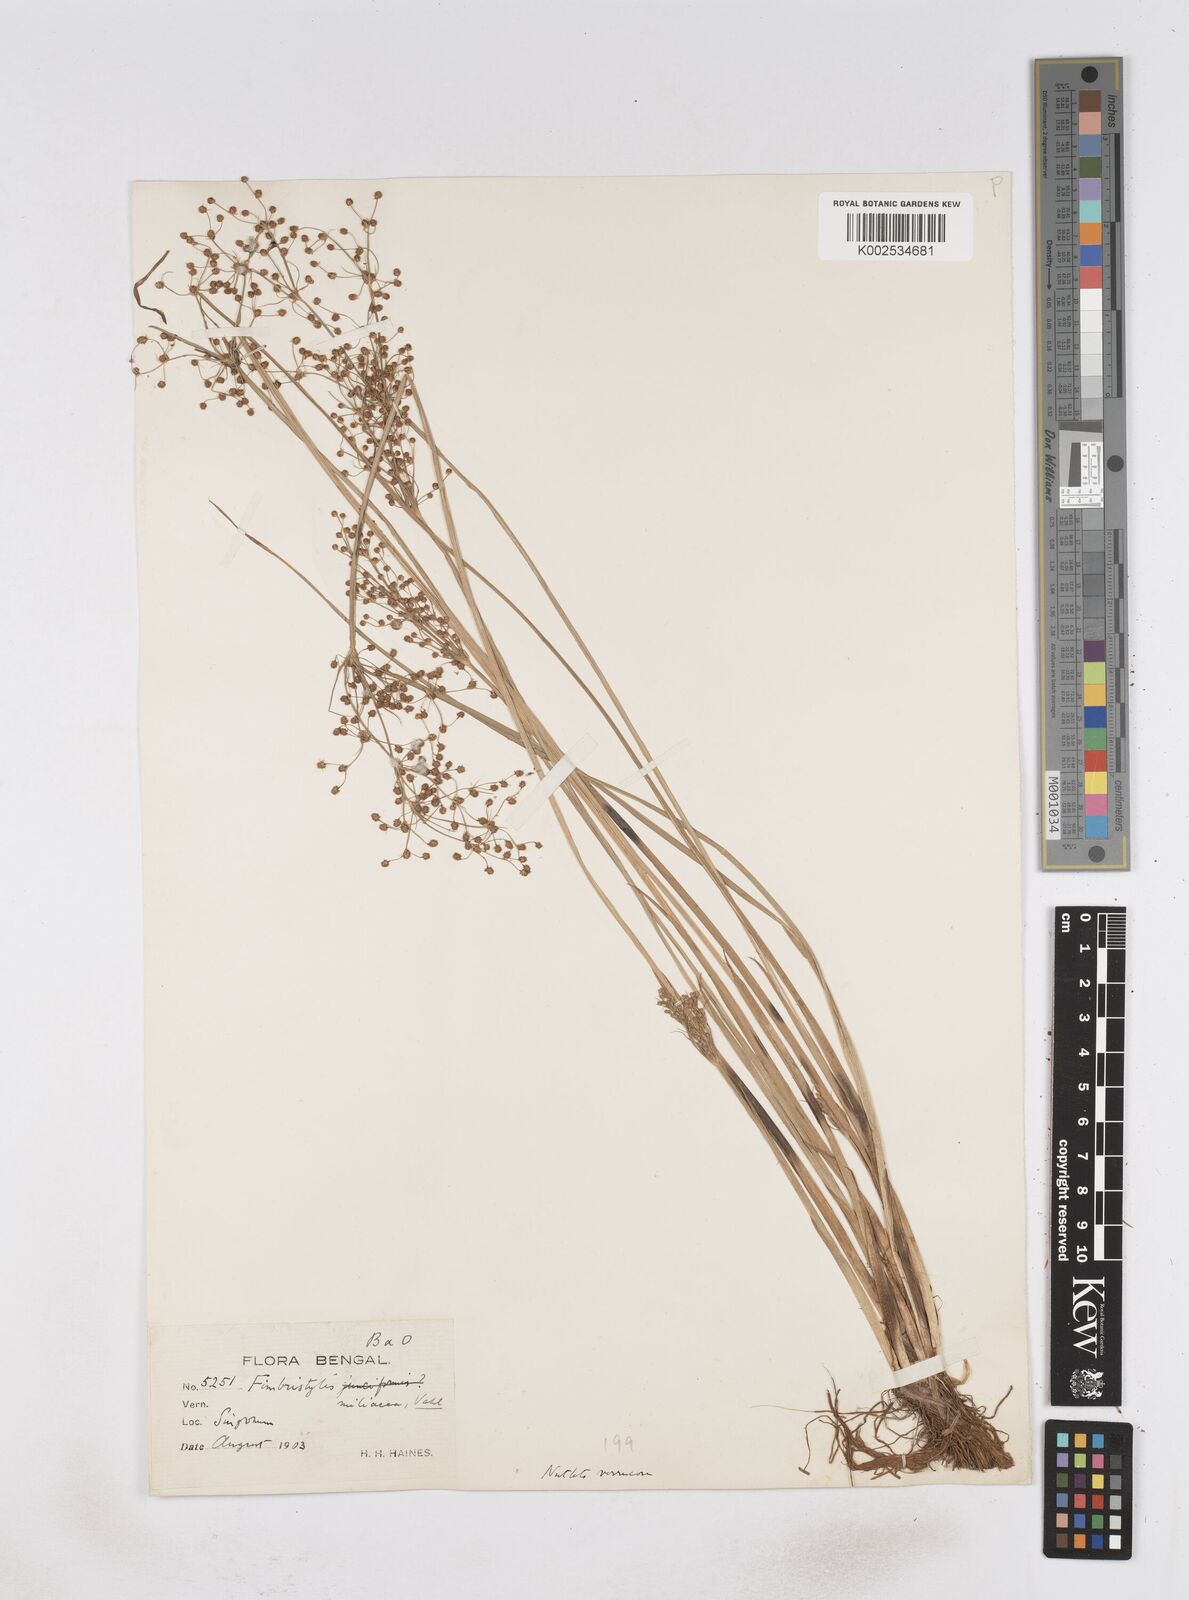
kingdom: Plantae
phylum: Tracheophyta
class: Liliopsida
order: Poales
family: Cyperaceae
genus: Fimbristylis
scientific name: Fimbristylis littoralis
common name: Fimbry
